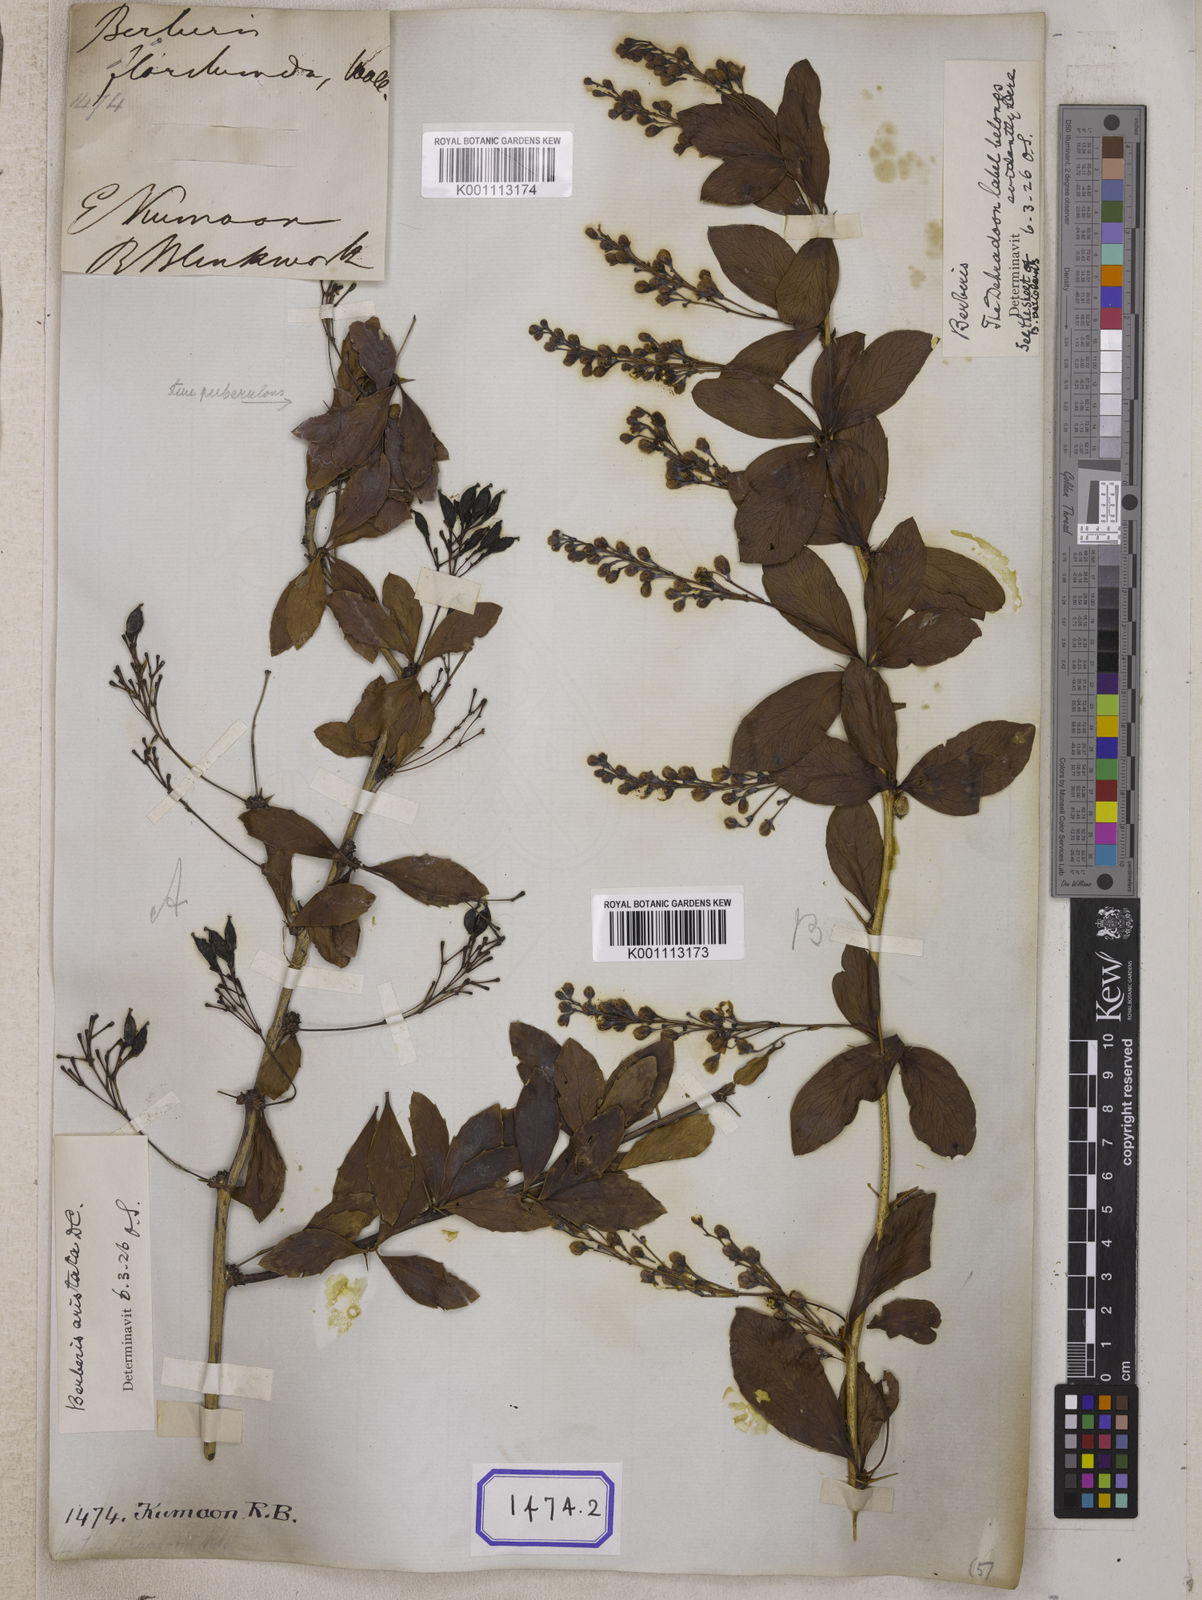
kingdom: Plantae
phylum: Tracheophyta
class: Magnoliopsida
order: Ranunculales
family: Berberidaceae
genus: Berberis
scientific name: Berberis aristata
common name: Indian barberry
